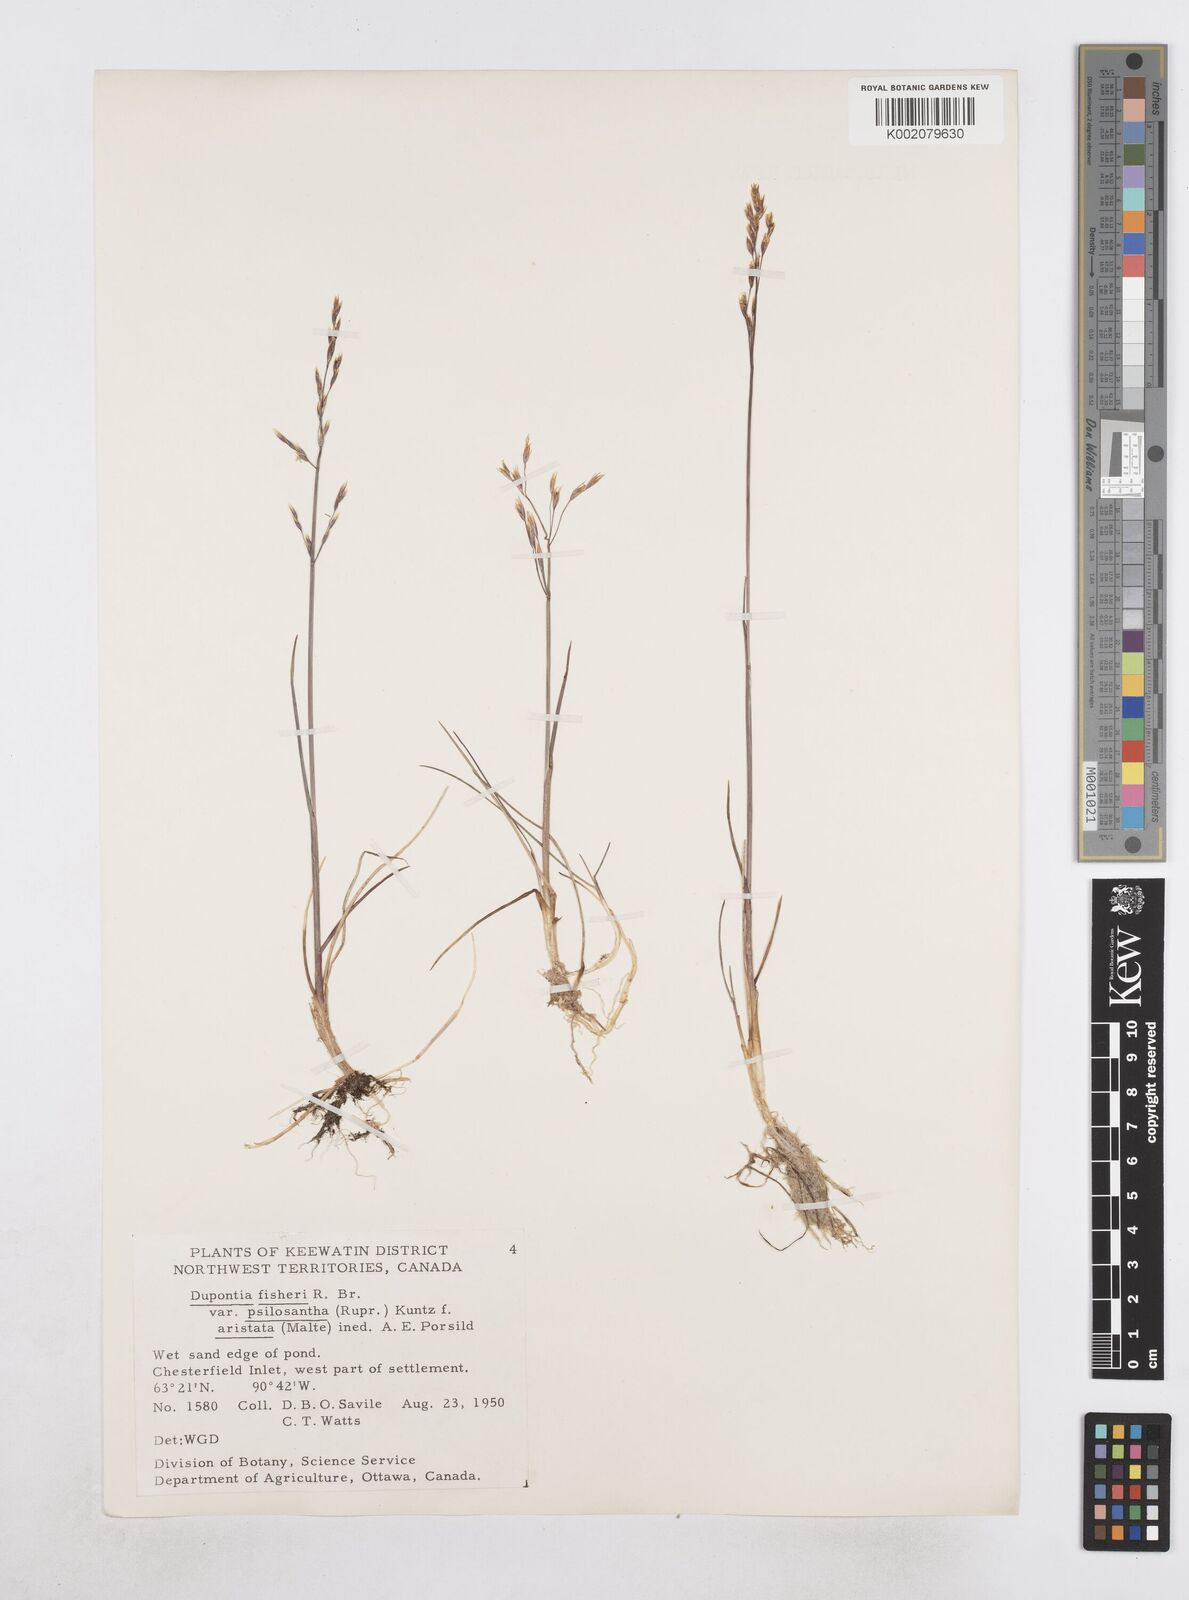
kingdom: Plantae
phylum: Tracheophyta
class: Liliopsida
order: Poales
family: Poaceae
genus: Dupontia
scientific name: Dupontia fisheri
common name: Tundra grass
